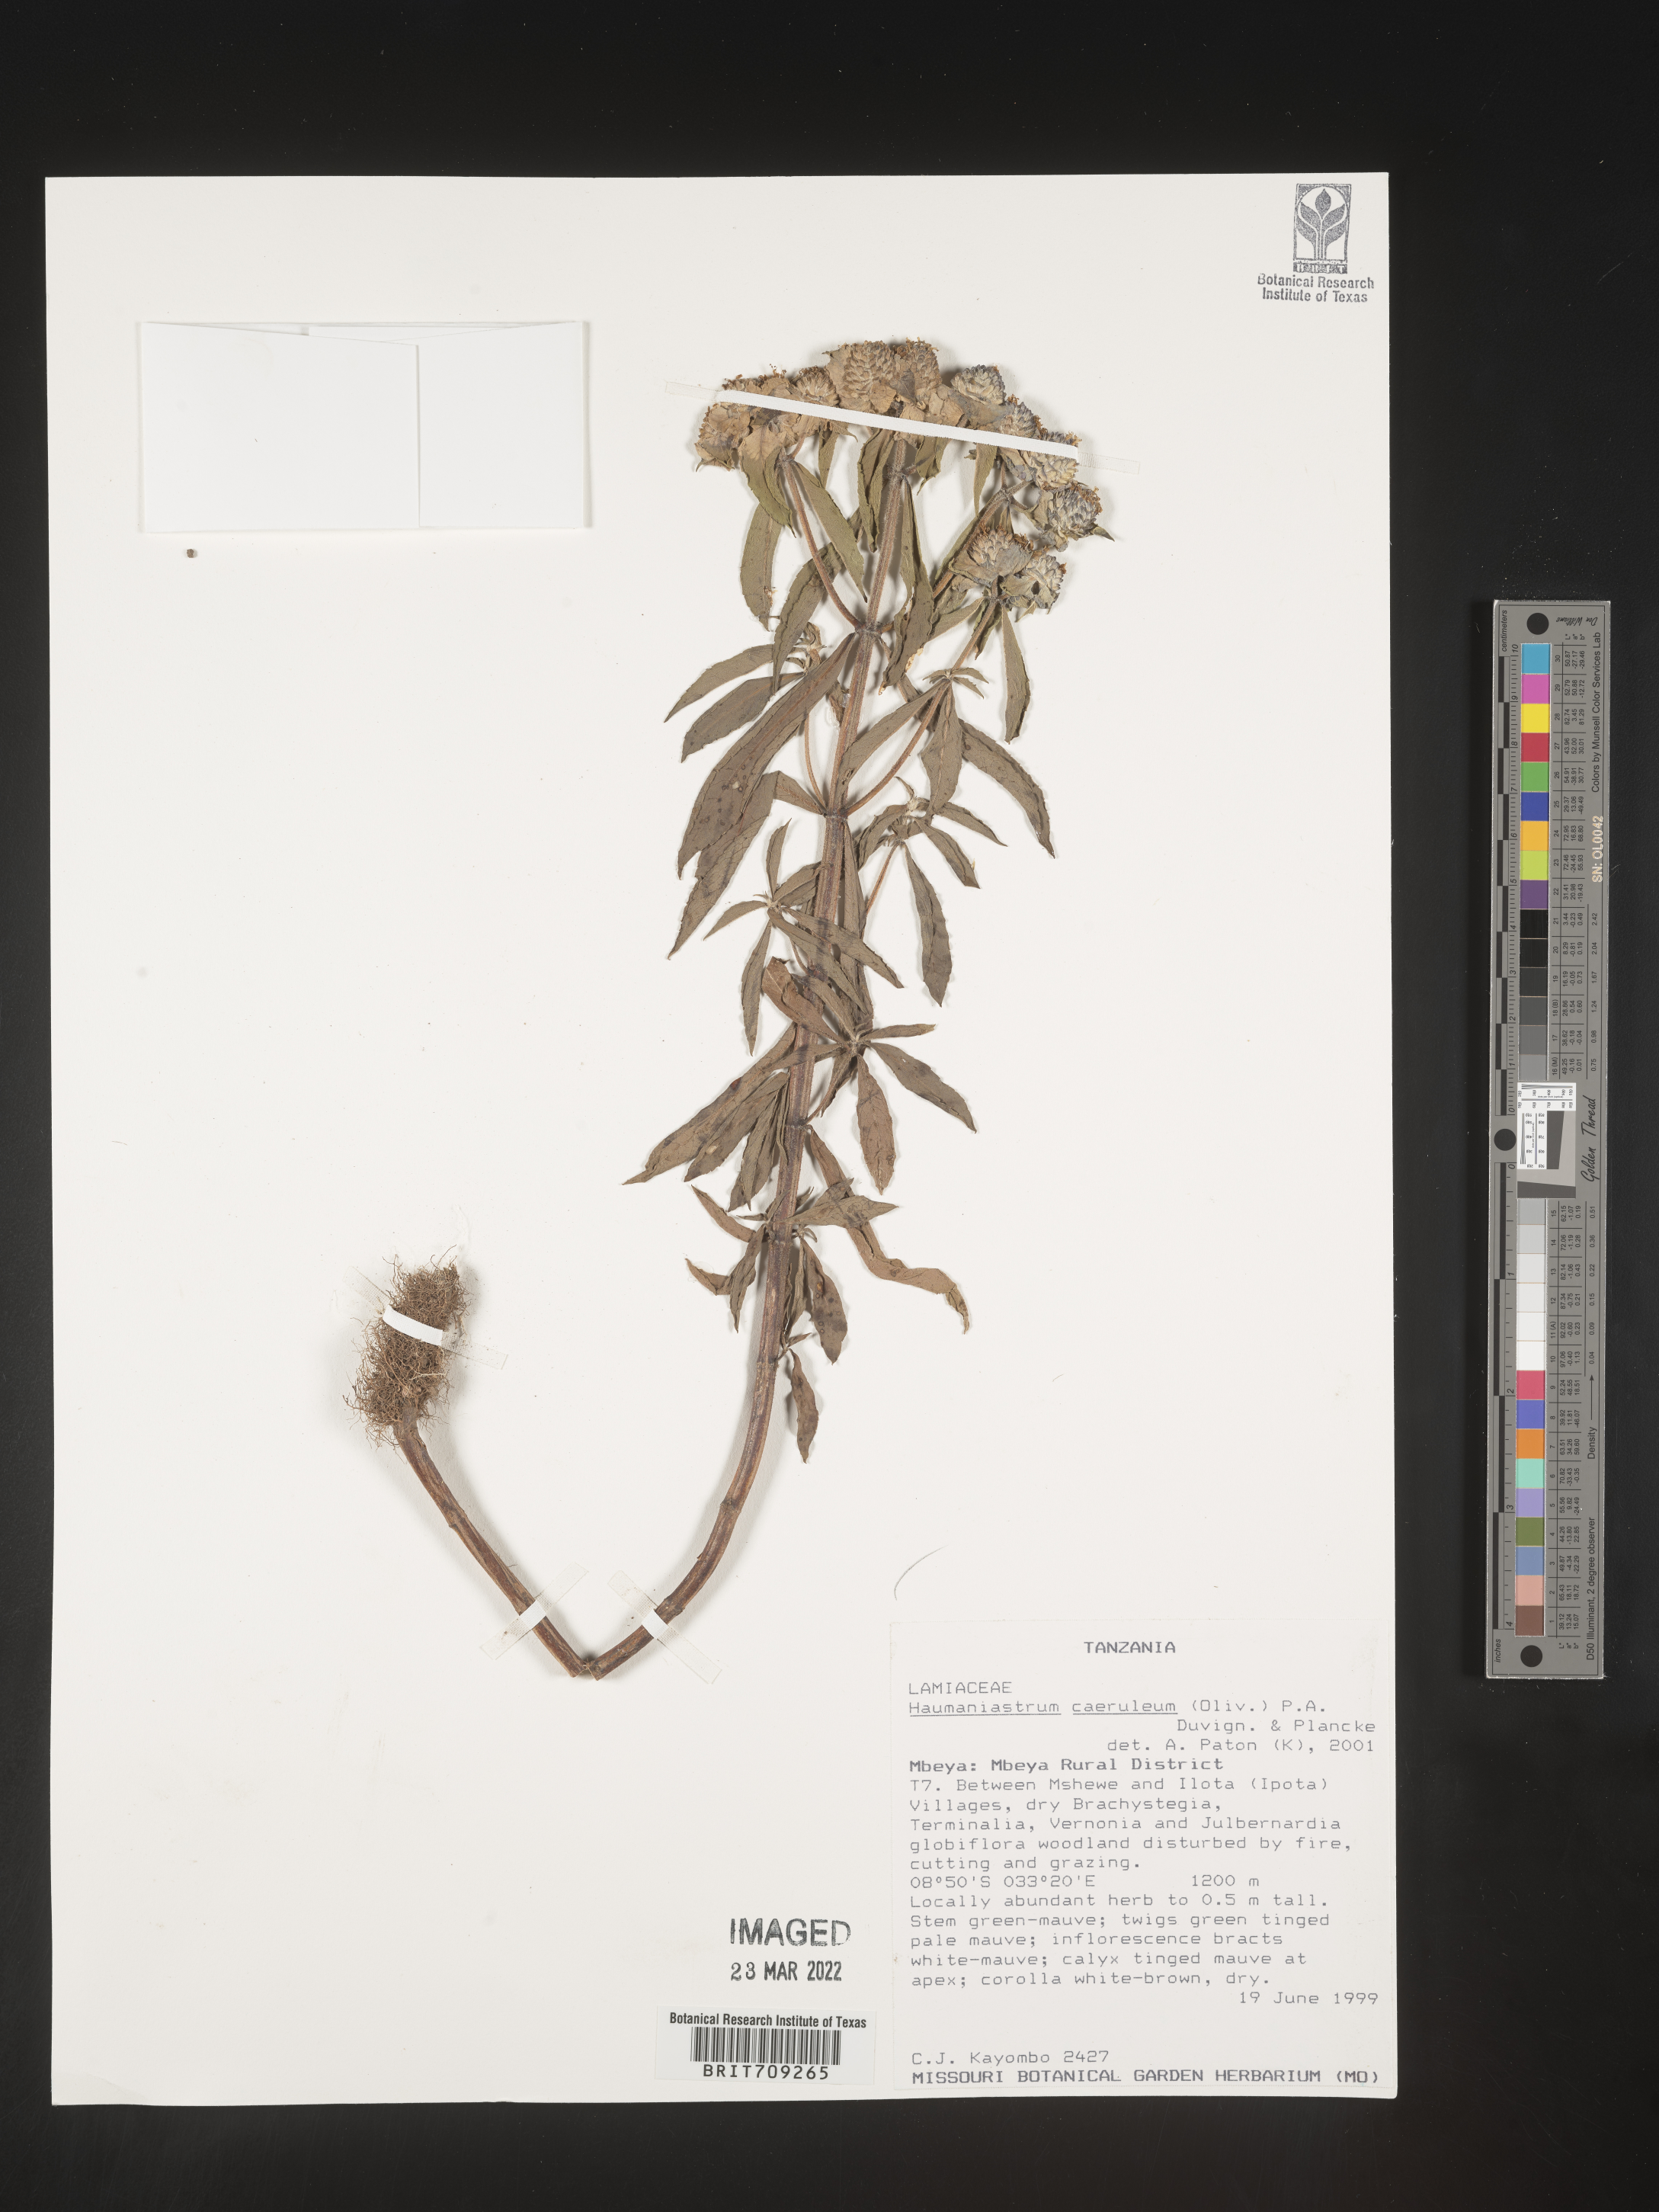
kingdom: Plantae
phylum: Tracheophyta
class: Magnoliopsida
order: Lamiales
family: Lamiaceae
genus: Haumaniastrum
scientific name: Haumaniastrum
